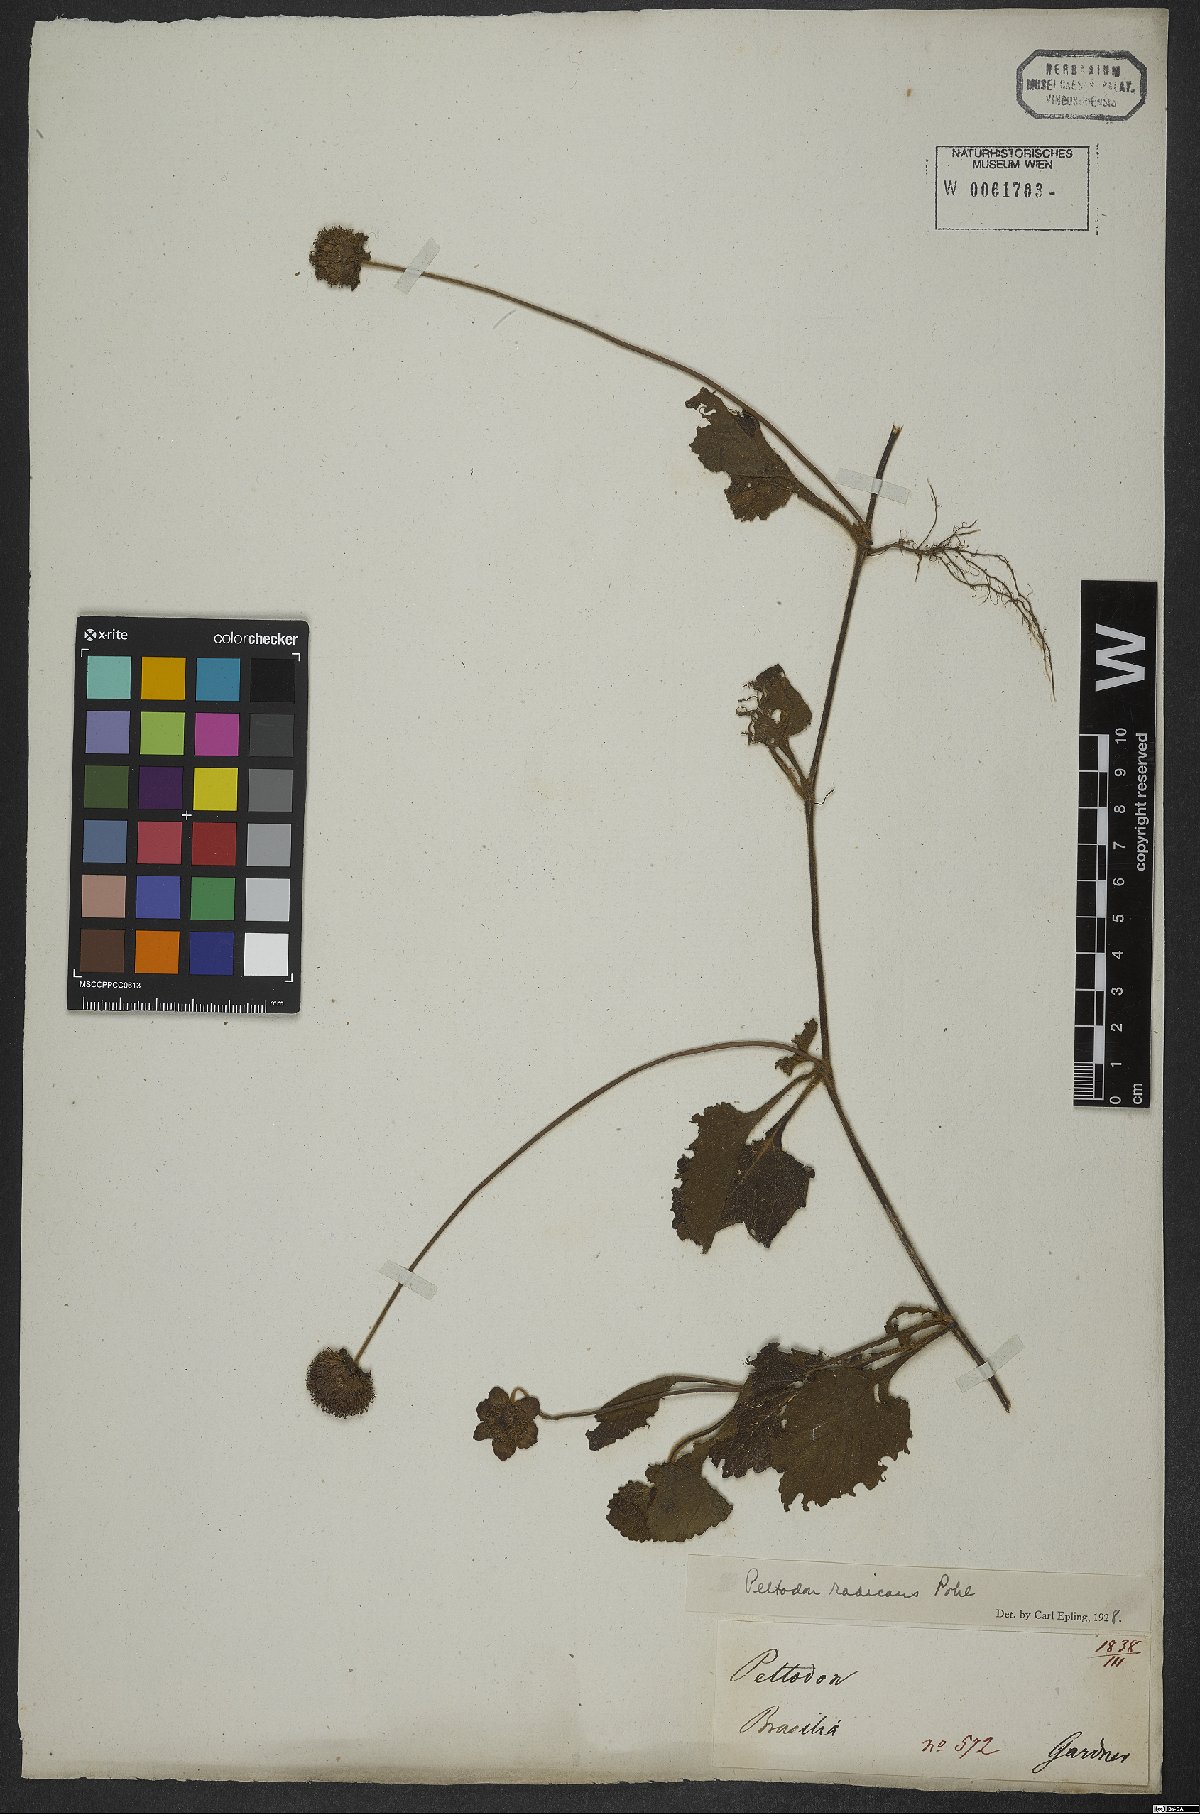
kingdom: Plantae
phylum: Tracheophyta
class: Magnoliopsida
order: Lamiales
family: Lamiaceae
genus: Hyptis
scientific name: Hyptis radicans
